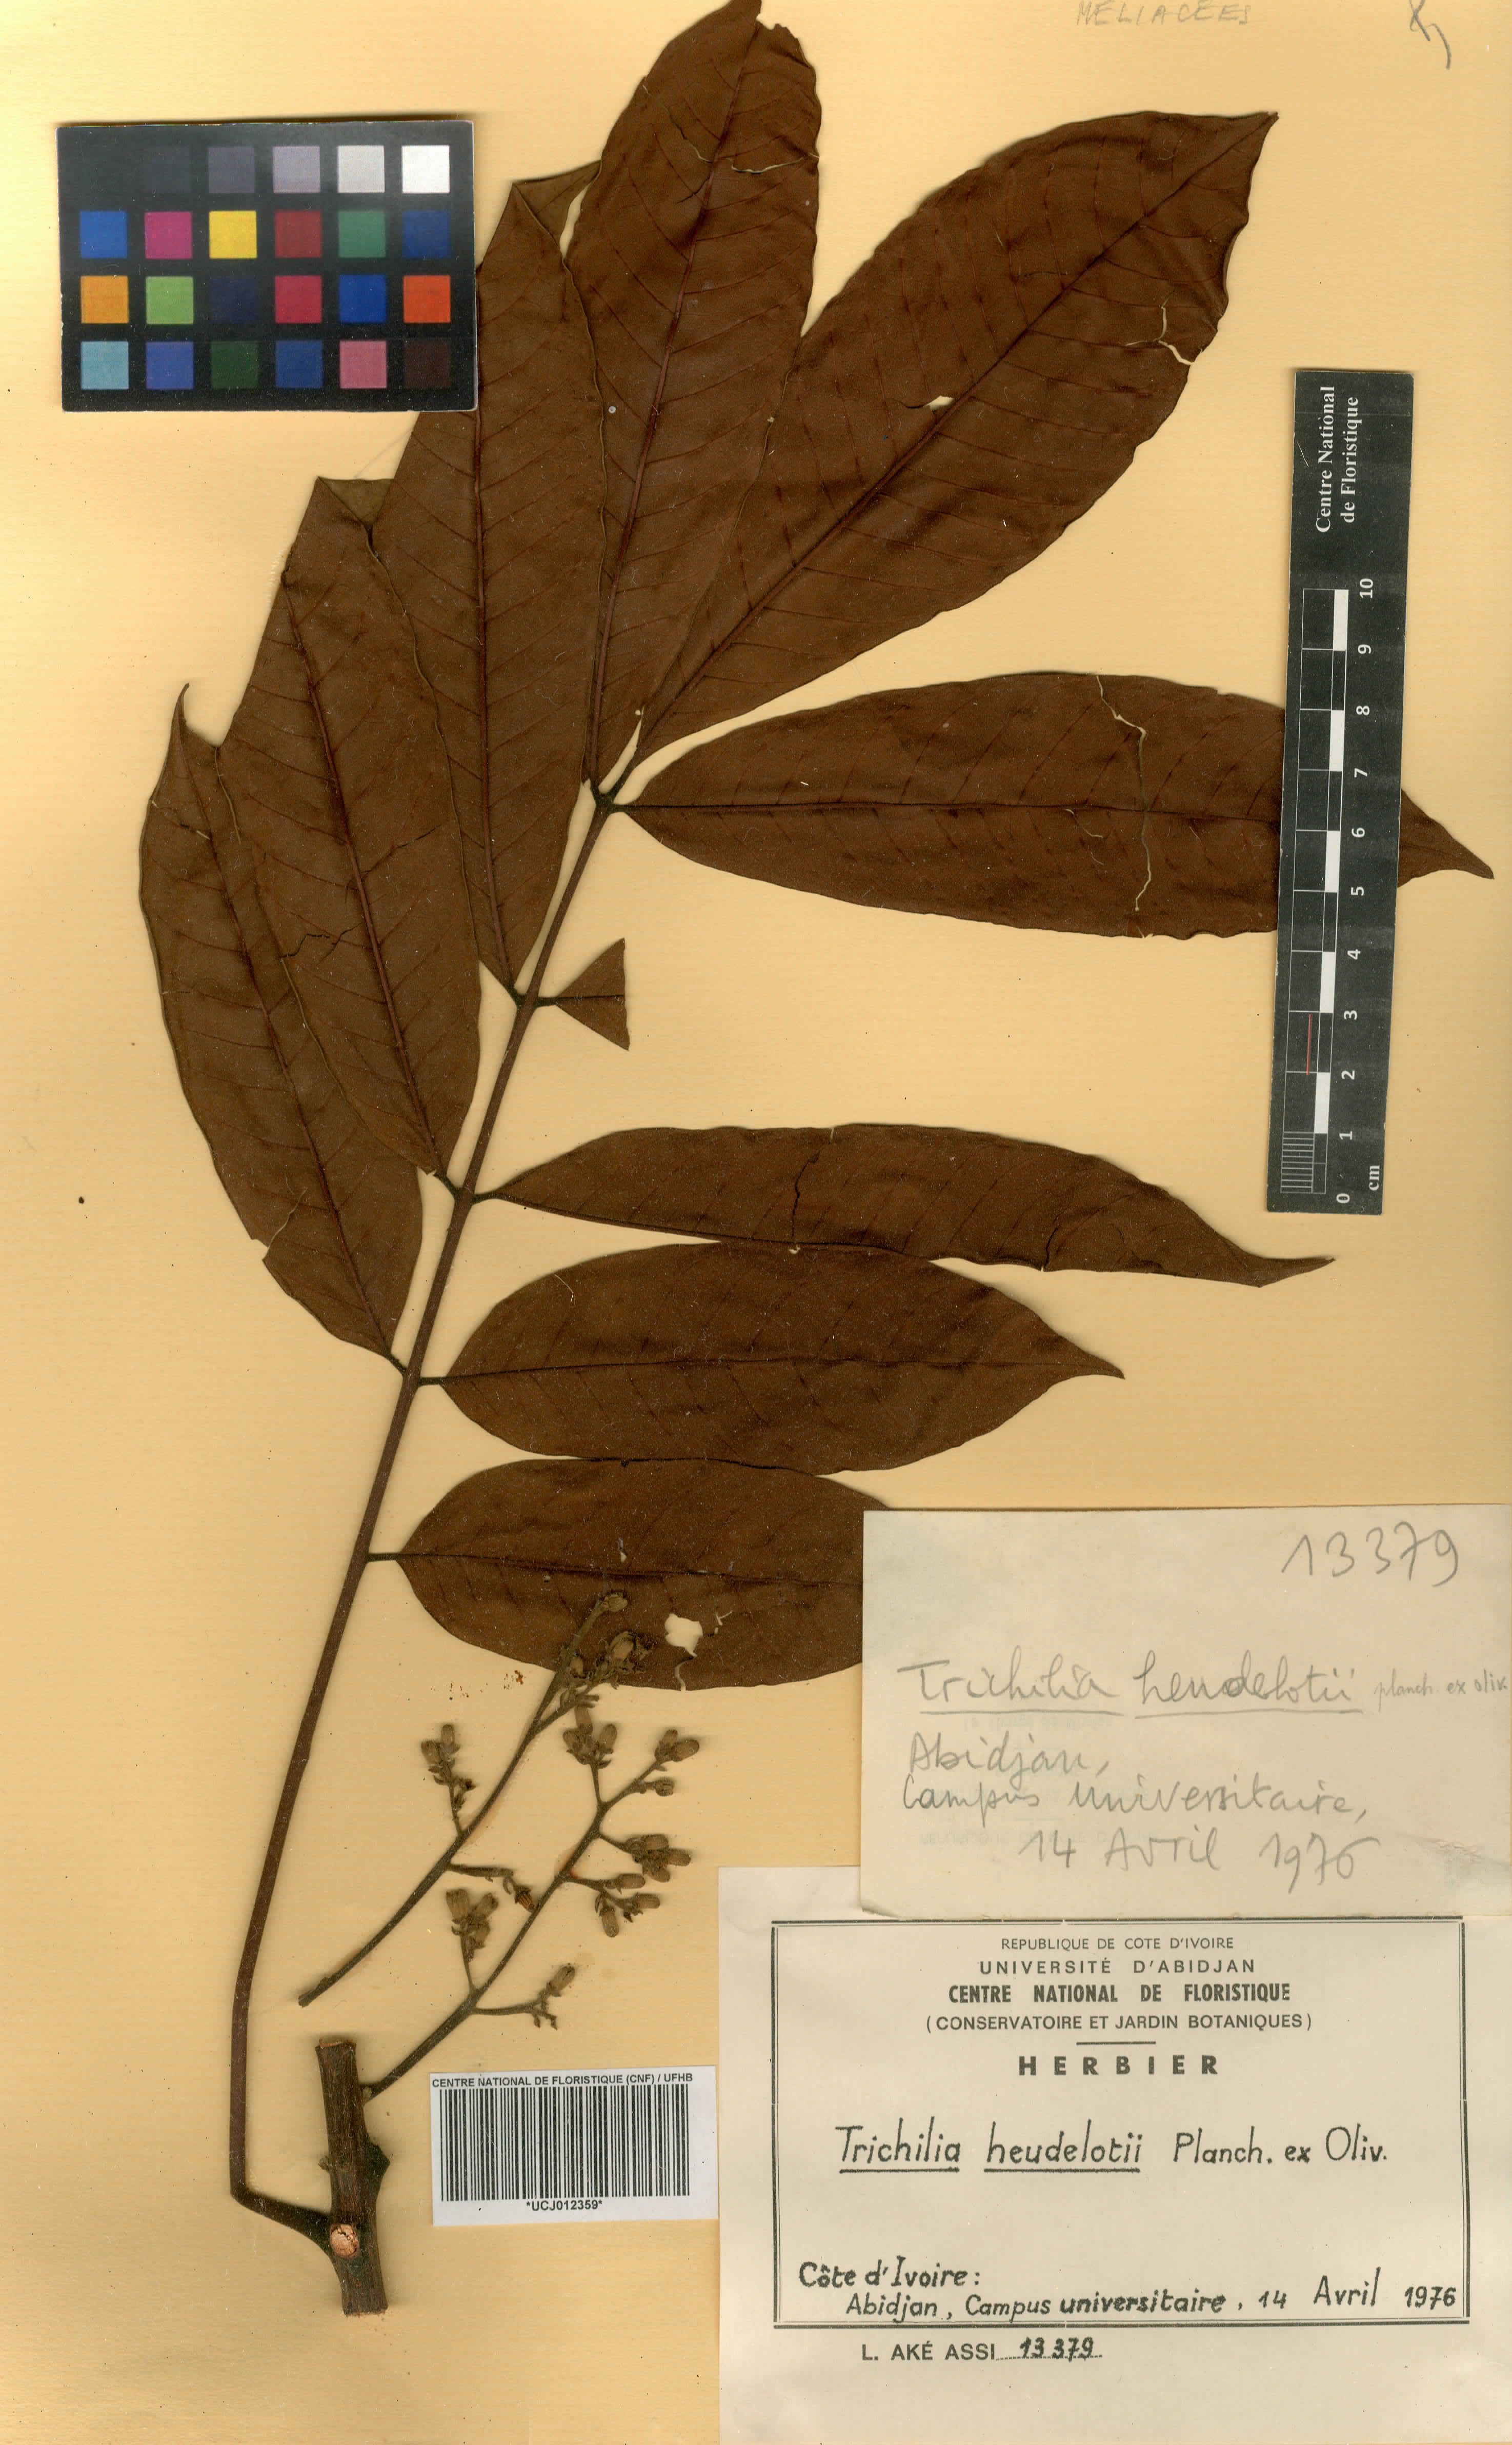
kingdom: Plantae
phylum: Tracheophyta
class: Magnoliopsida
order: Sapindales
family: Meliaceae
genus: Trichilia
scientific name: Trichilia monadelpha
